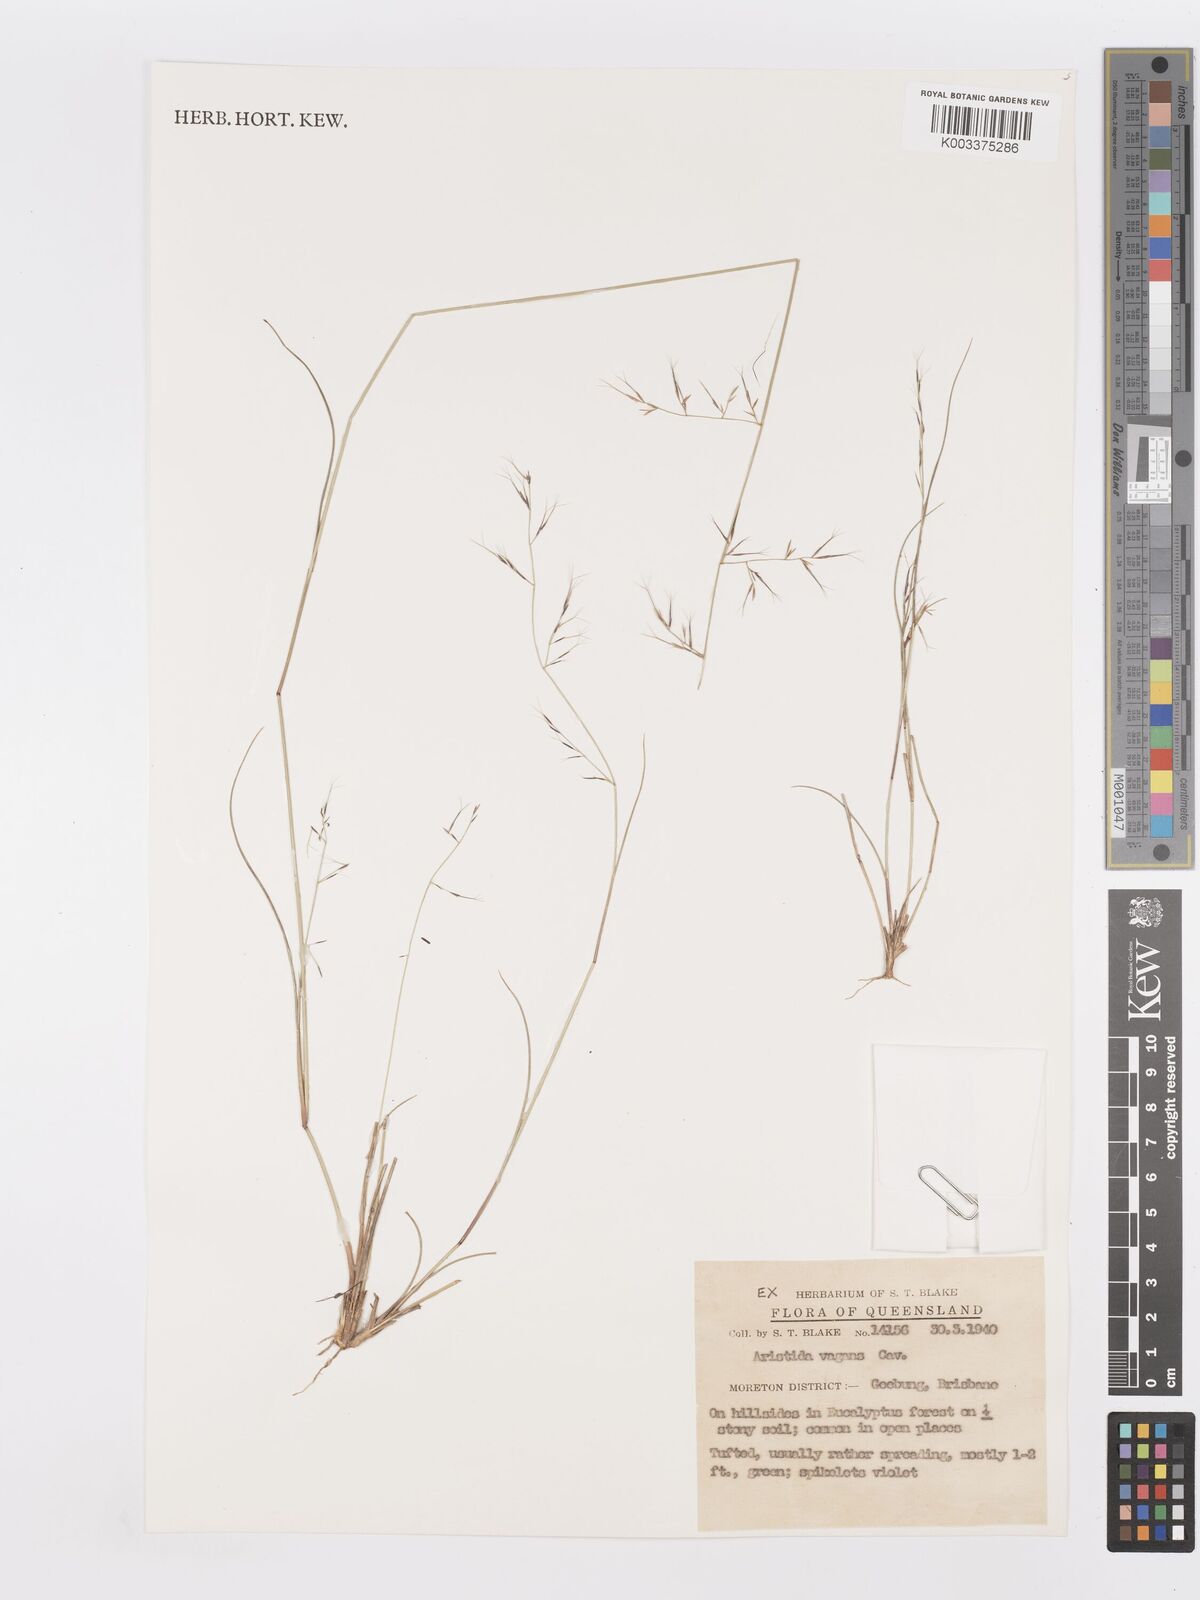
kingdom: Plantae
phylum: Tracheophyta
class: Liliopsida
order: Poales
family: Poaceae
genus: Aristida
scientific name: Aristida vagans
